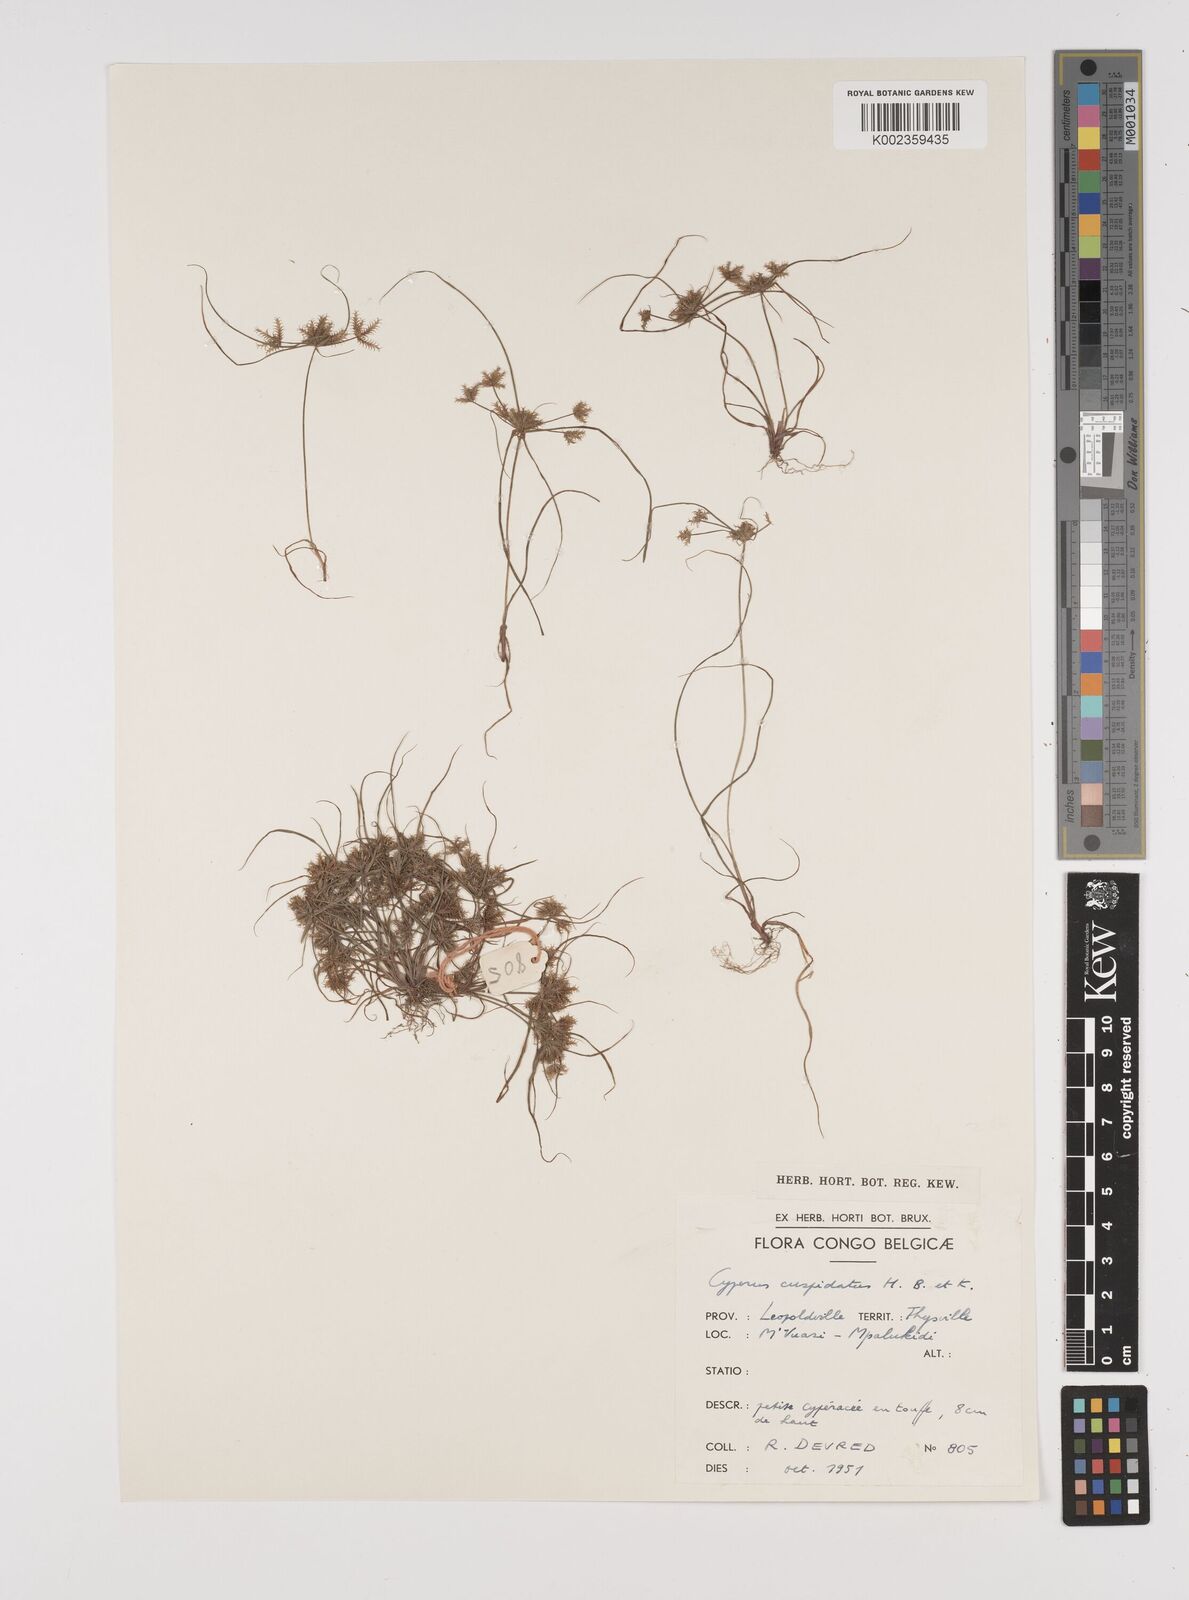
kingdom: Plantae
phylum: Tracheophyta
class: Liliopsida
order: Poales
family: Cyperaceae
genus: Cyperus
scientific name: Cyperus cuspidatus
